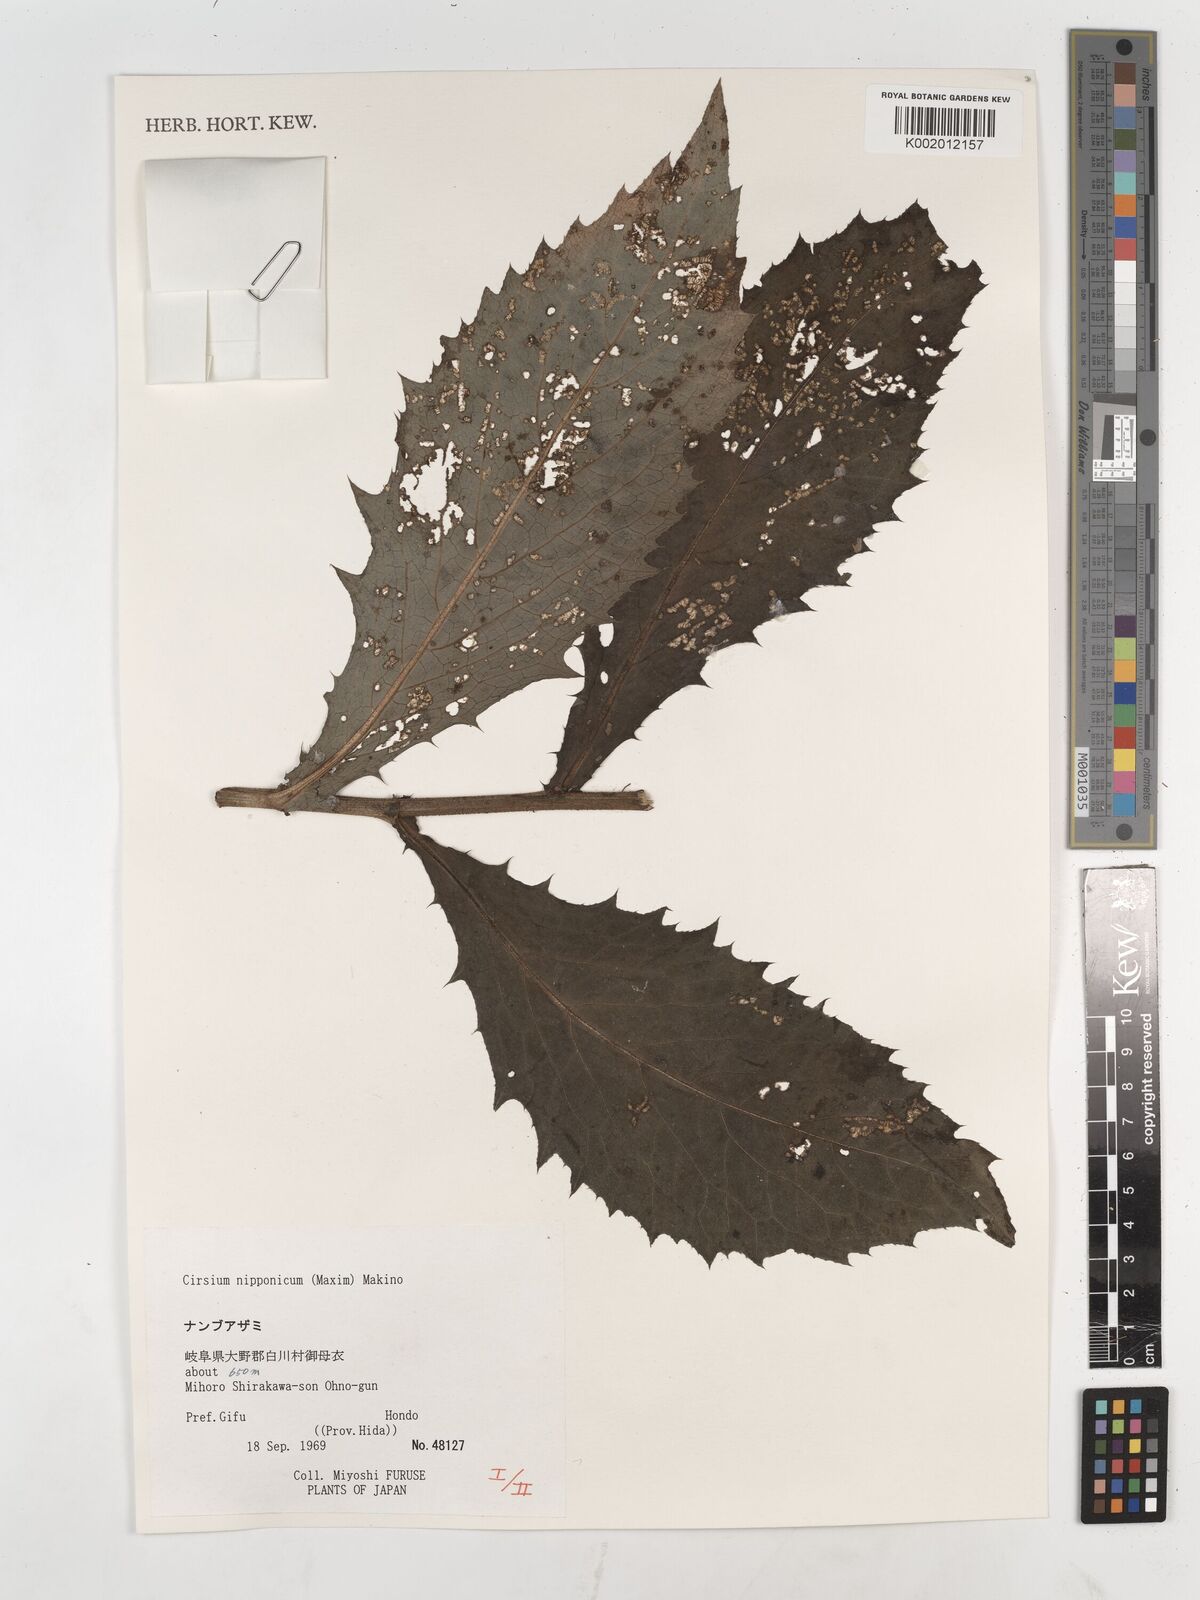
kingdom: Plantae
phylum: Tracheophyta
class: Magnoliopsida
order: Asterales
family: Asteraceae
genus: Cirsium
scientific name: Cirsium nippoense
